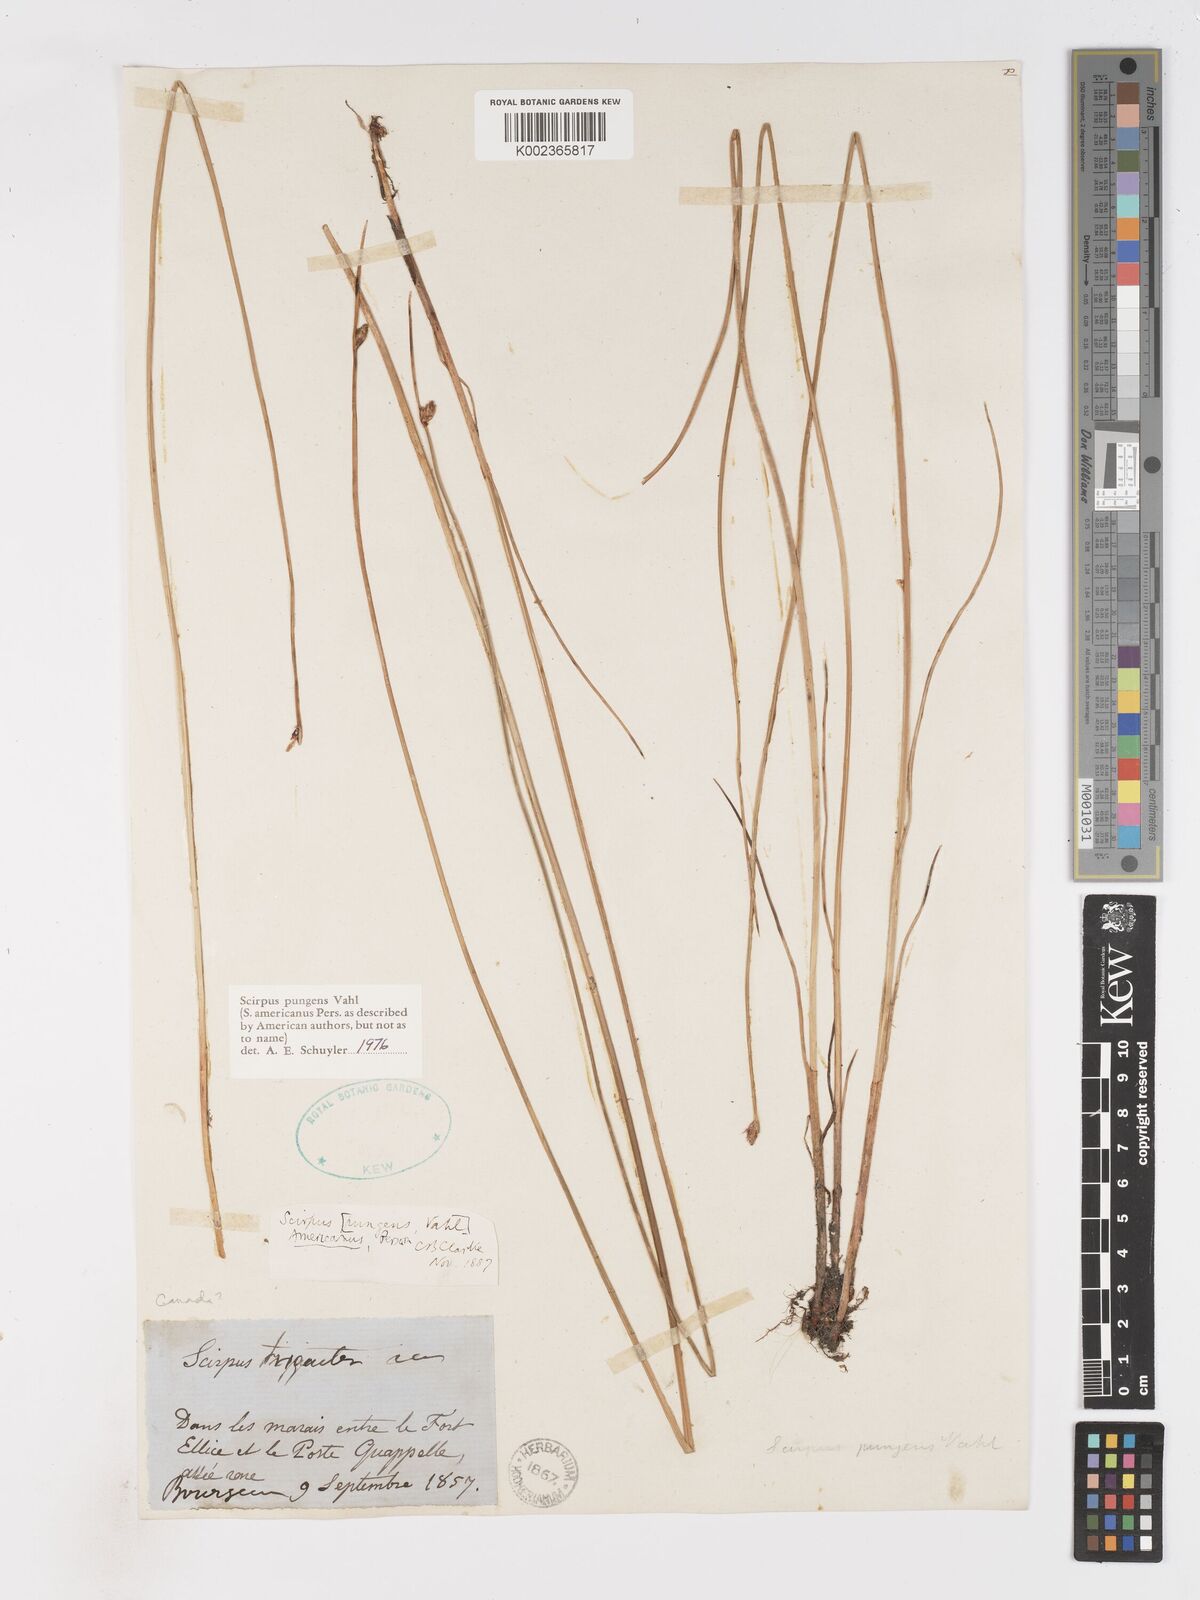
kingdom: Plantae
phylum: Tracheophyta
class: Liliopsida
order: Poales
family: Cyperaceae
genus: Schoenoplectus
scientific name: Schoenoplectus pungens
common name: Sharp club-rush
